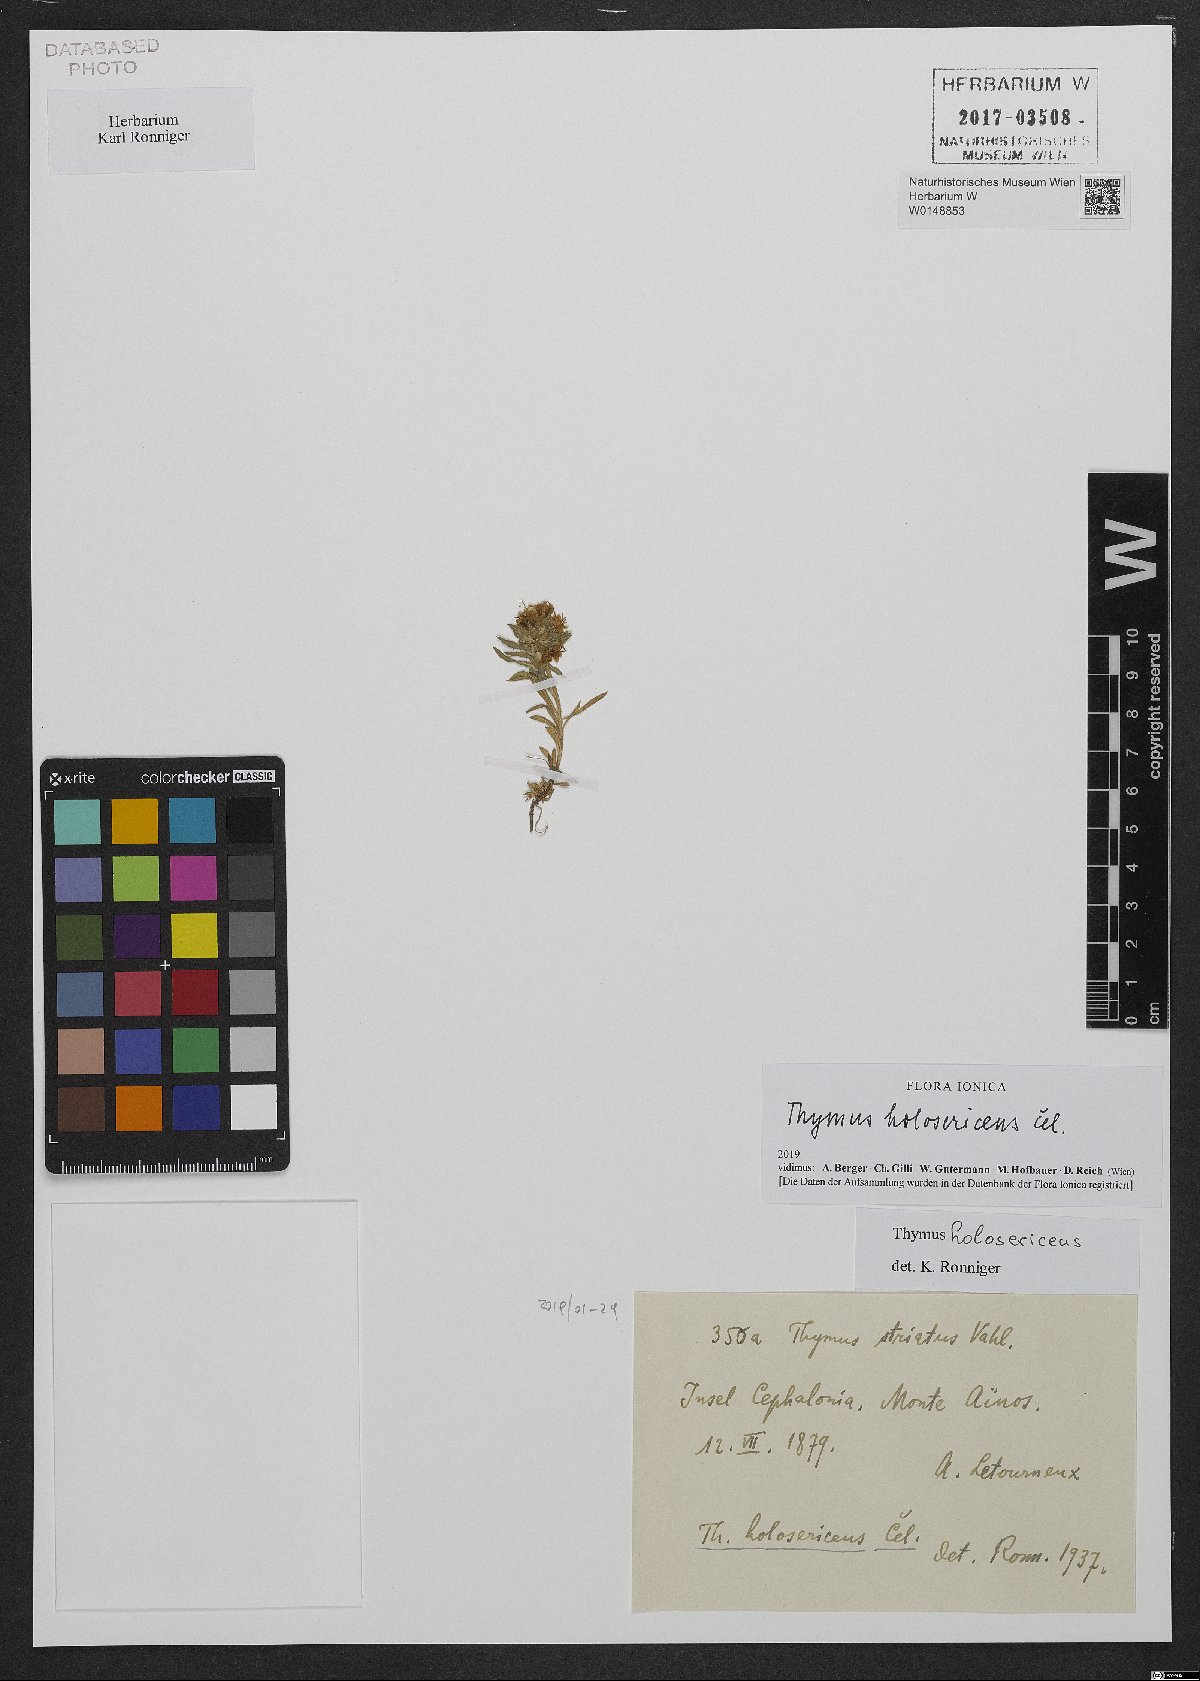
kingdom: Plantae
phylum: Tracheophyta
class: Magnoliopsida
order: Lamiales
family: Lamiaceae
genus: Thymus
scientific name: Thymus holosericeus
